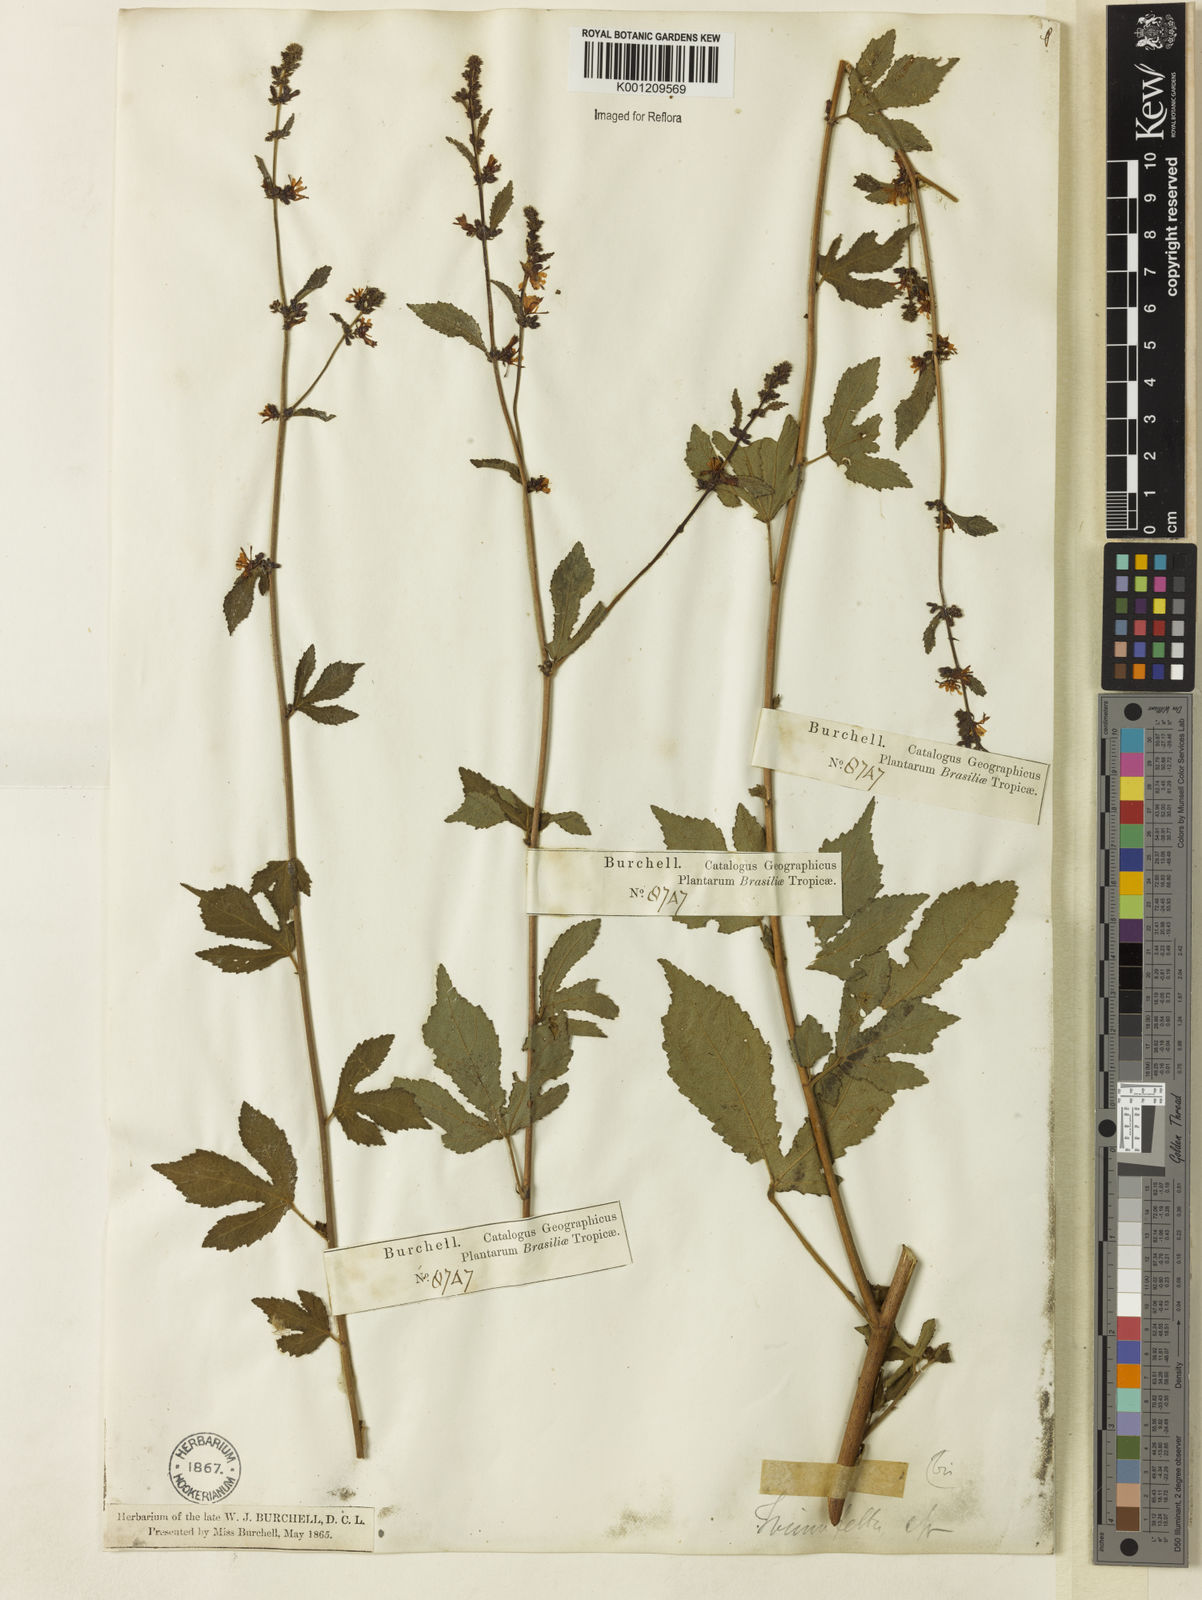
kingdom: Plantae
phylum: Tracheophyta
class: Magnoliopsida
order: Malvales
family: Malvaceae
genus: Triumfetta
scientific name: Triumfetta rhomboidea
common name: Diamond burbark
